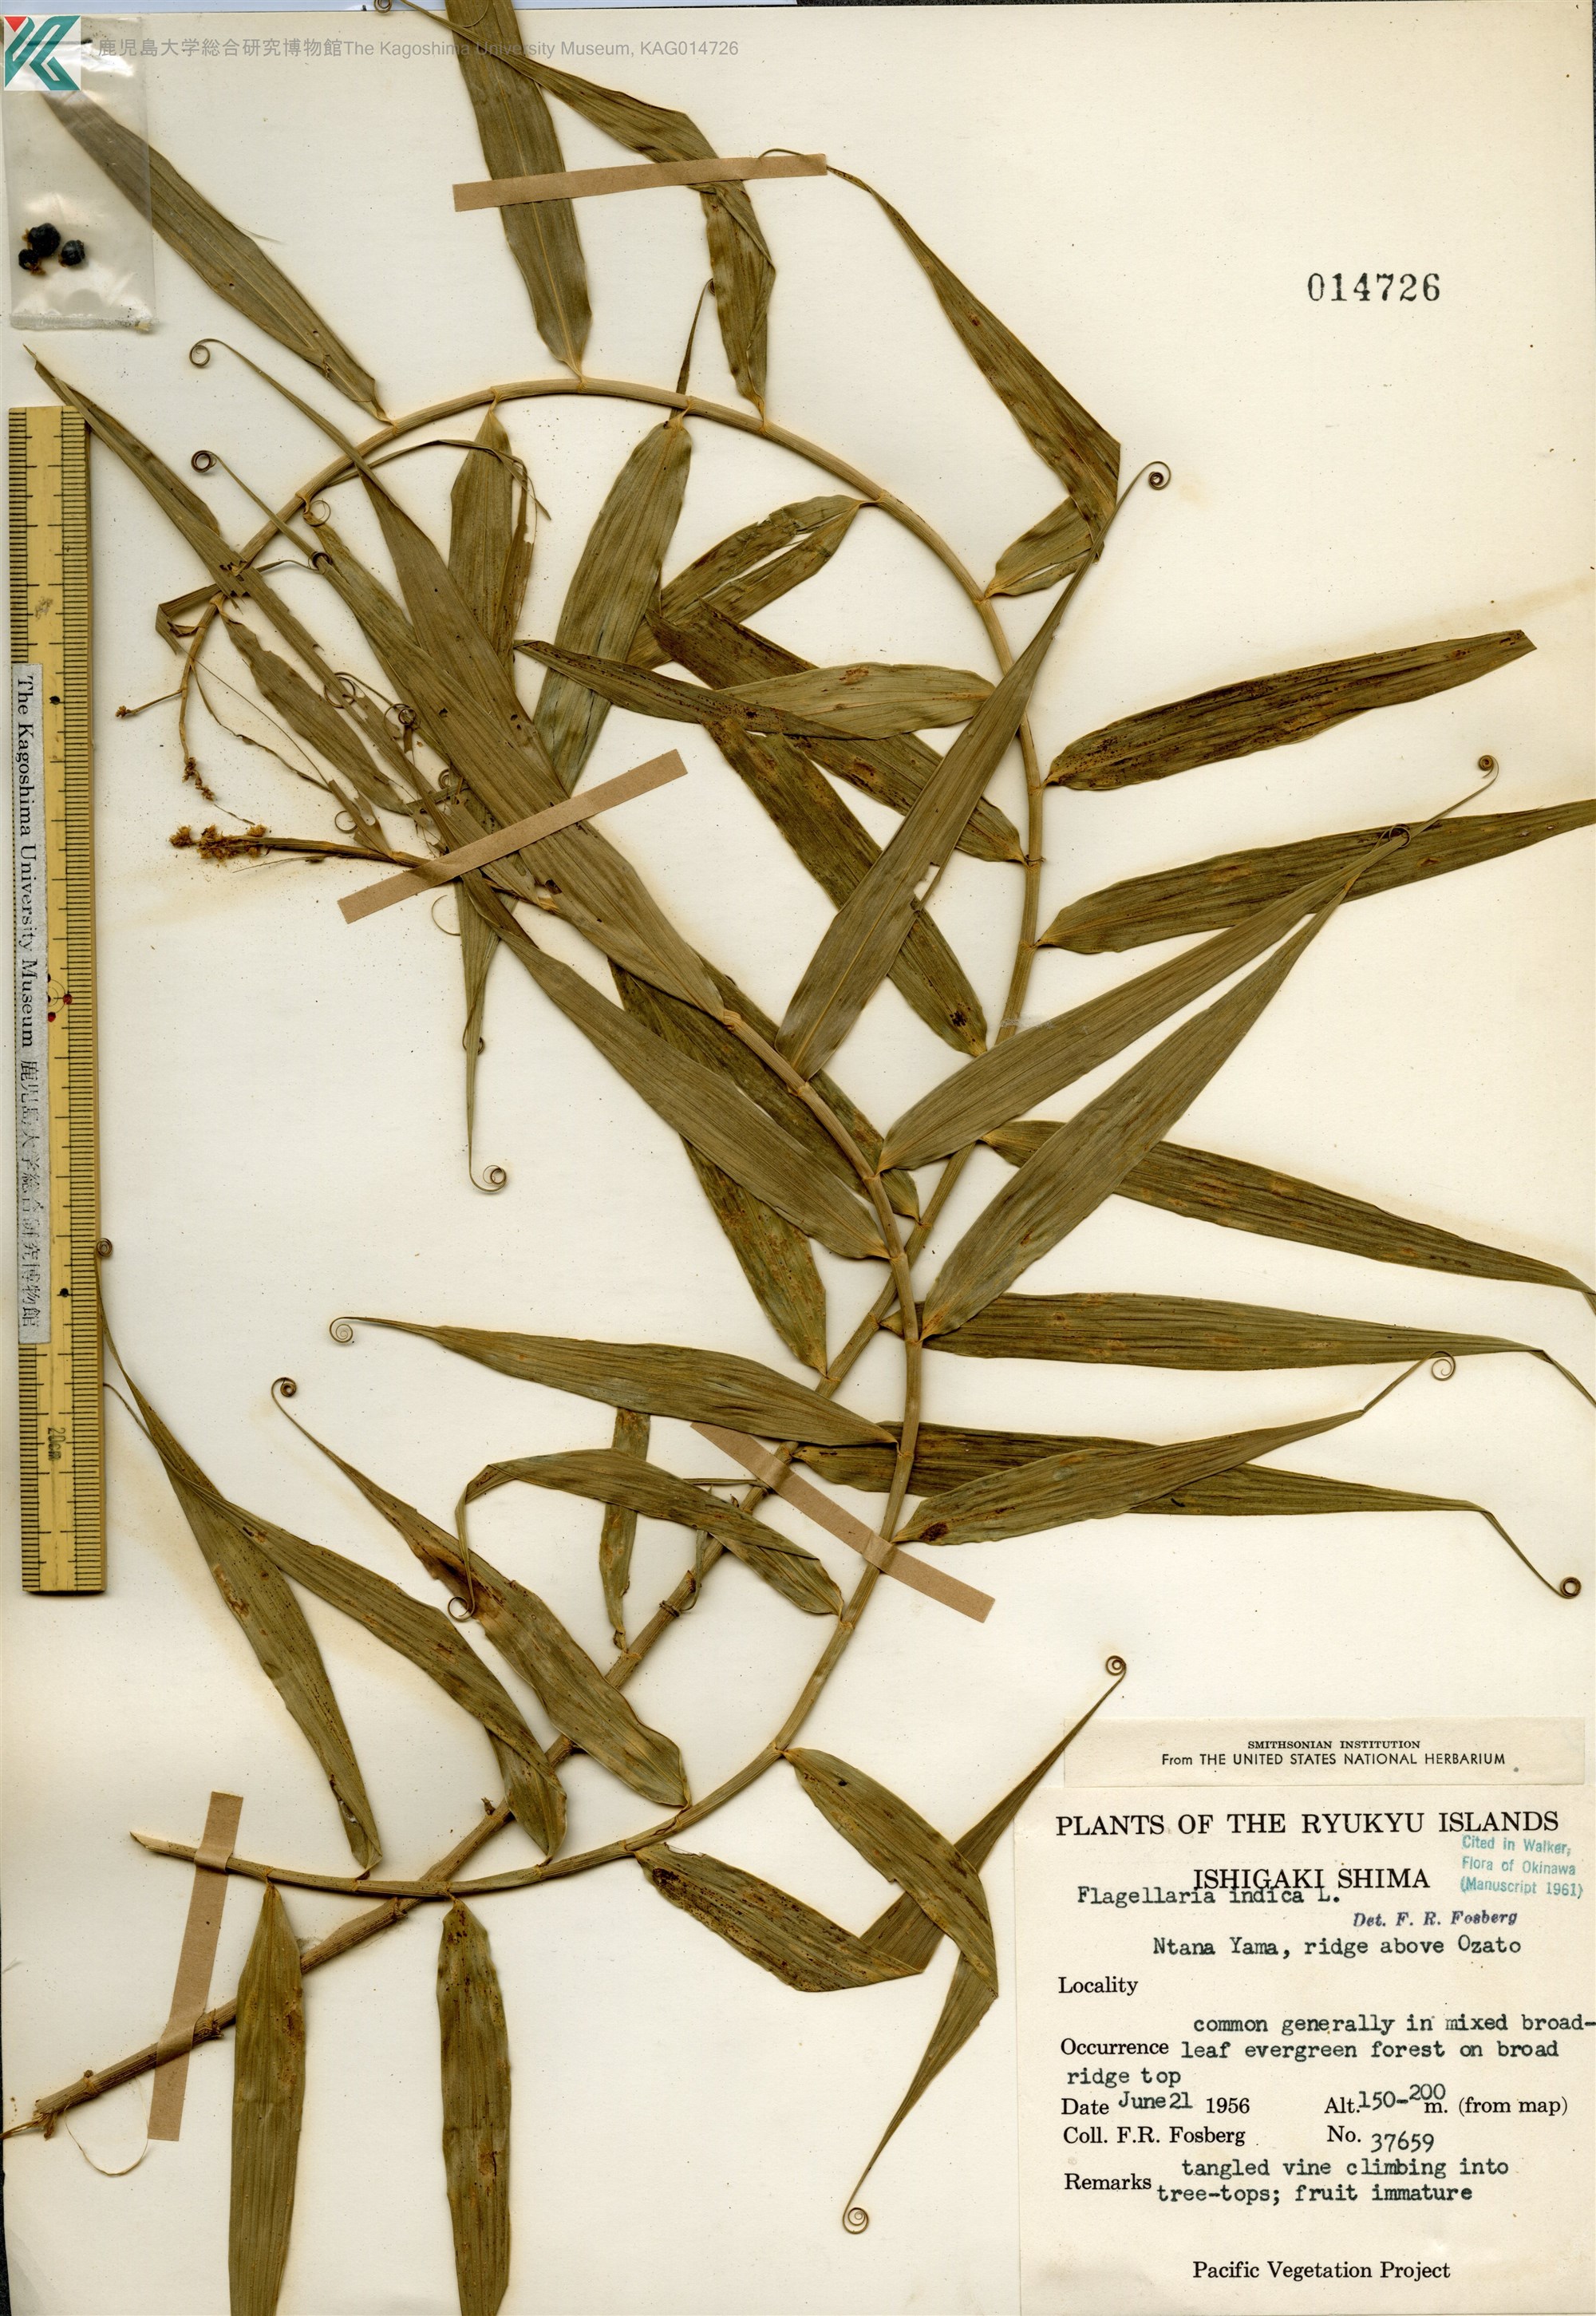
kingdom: Plantae
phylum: Tracheophyta
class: Liliopsida
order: Poales
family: Flagellariaceae
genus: Flagellaria
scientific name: Flagellaria indica
